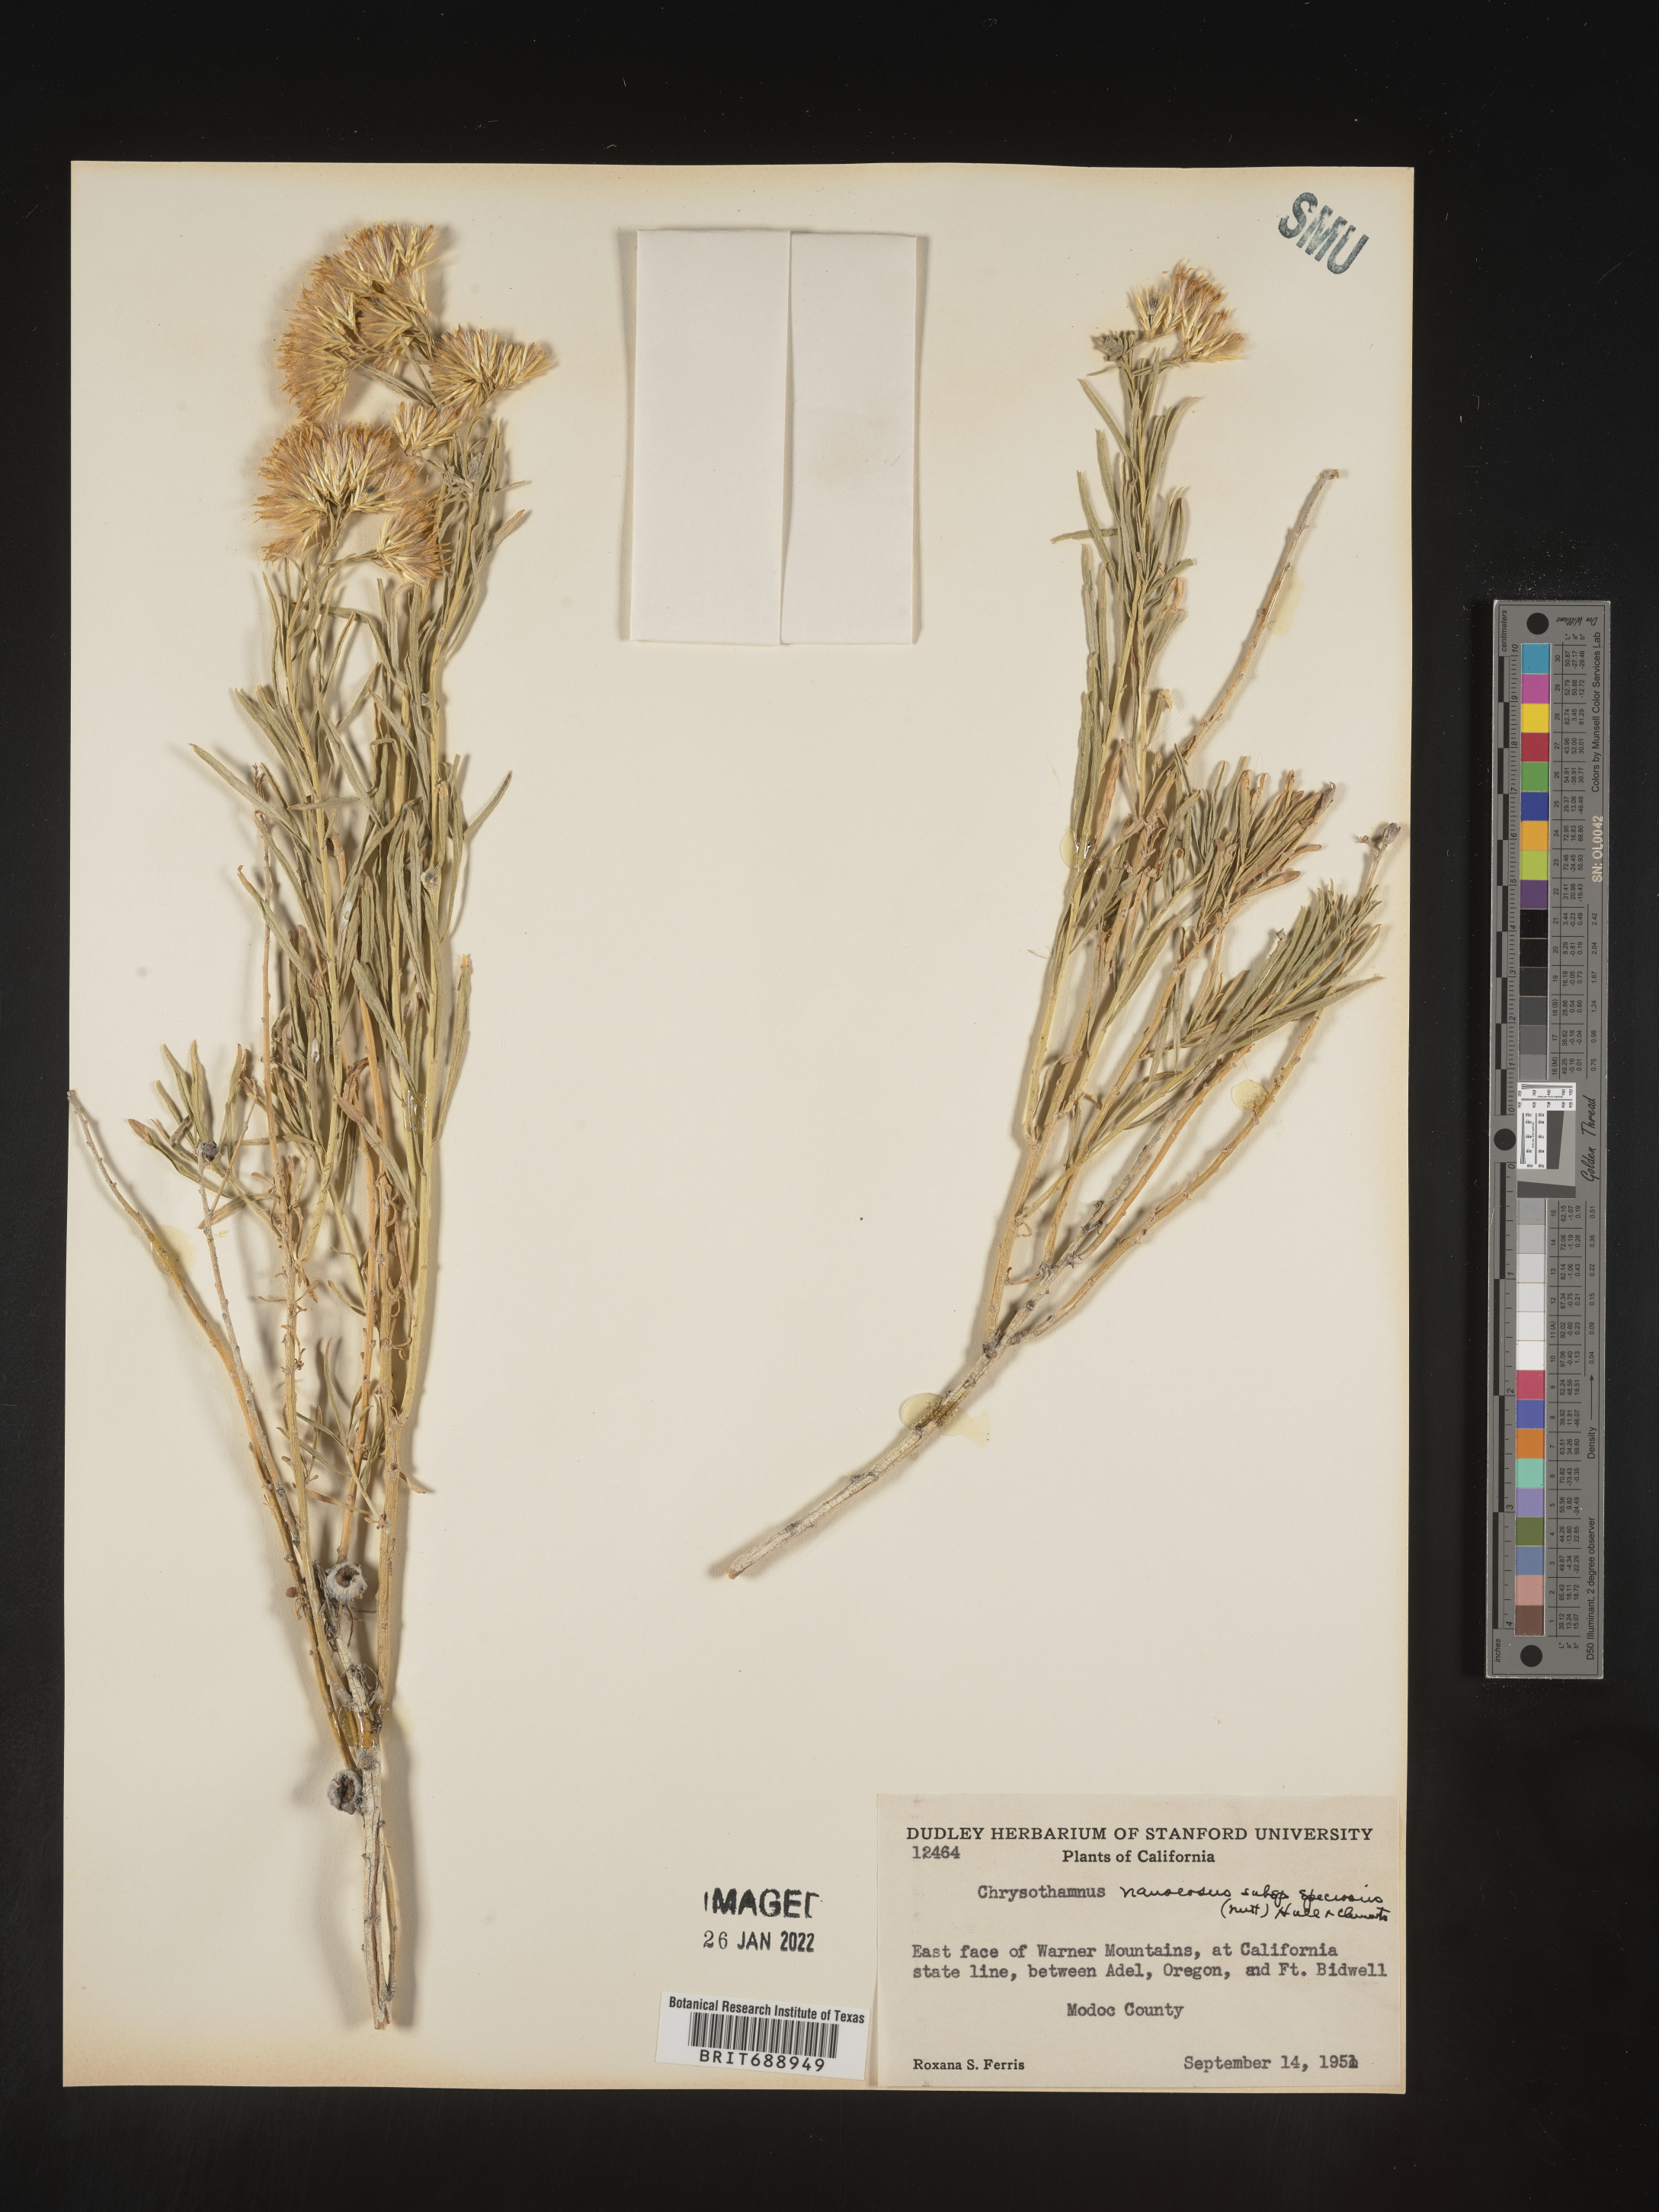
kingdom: Plantae
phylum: Tracheophyta
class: Magnoliopsida
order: Asterales
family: Asteraceae
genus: Ericameria
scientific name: Ericameria nauseosa
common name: Rubber rabbitbrush
